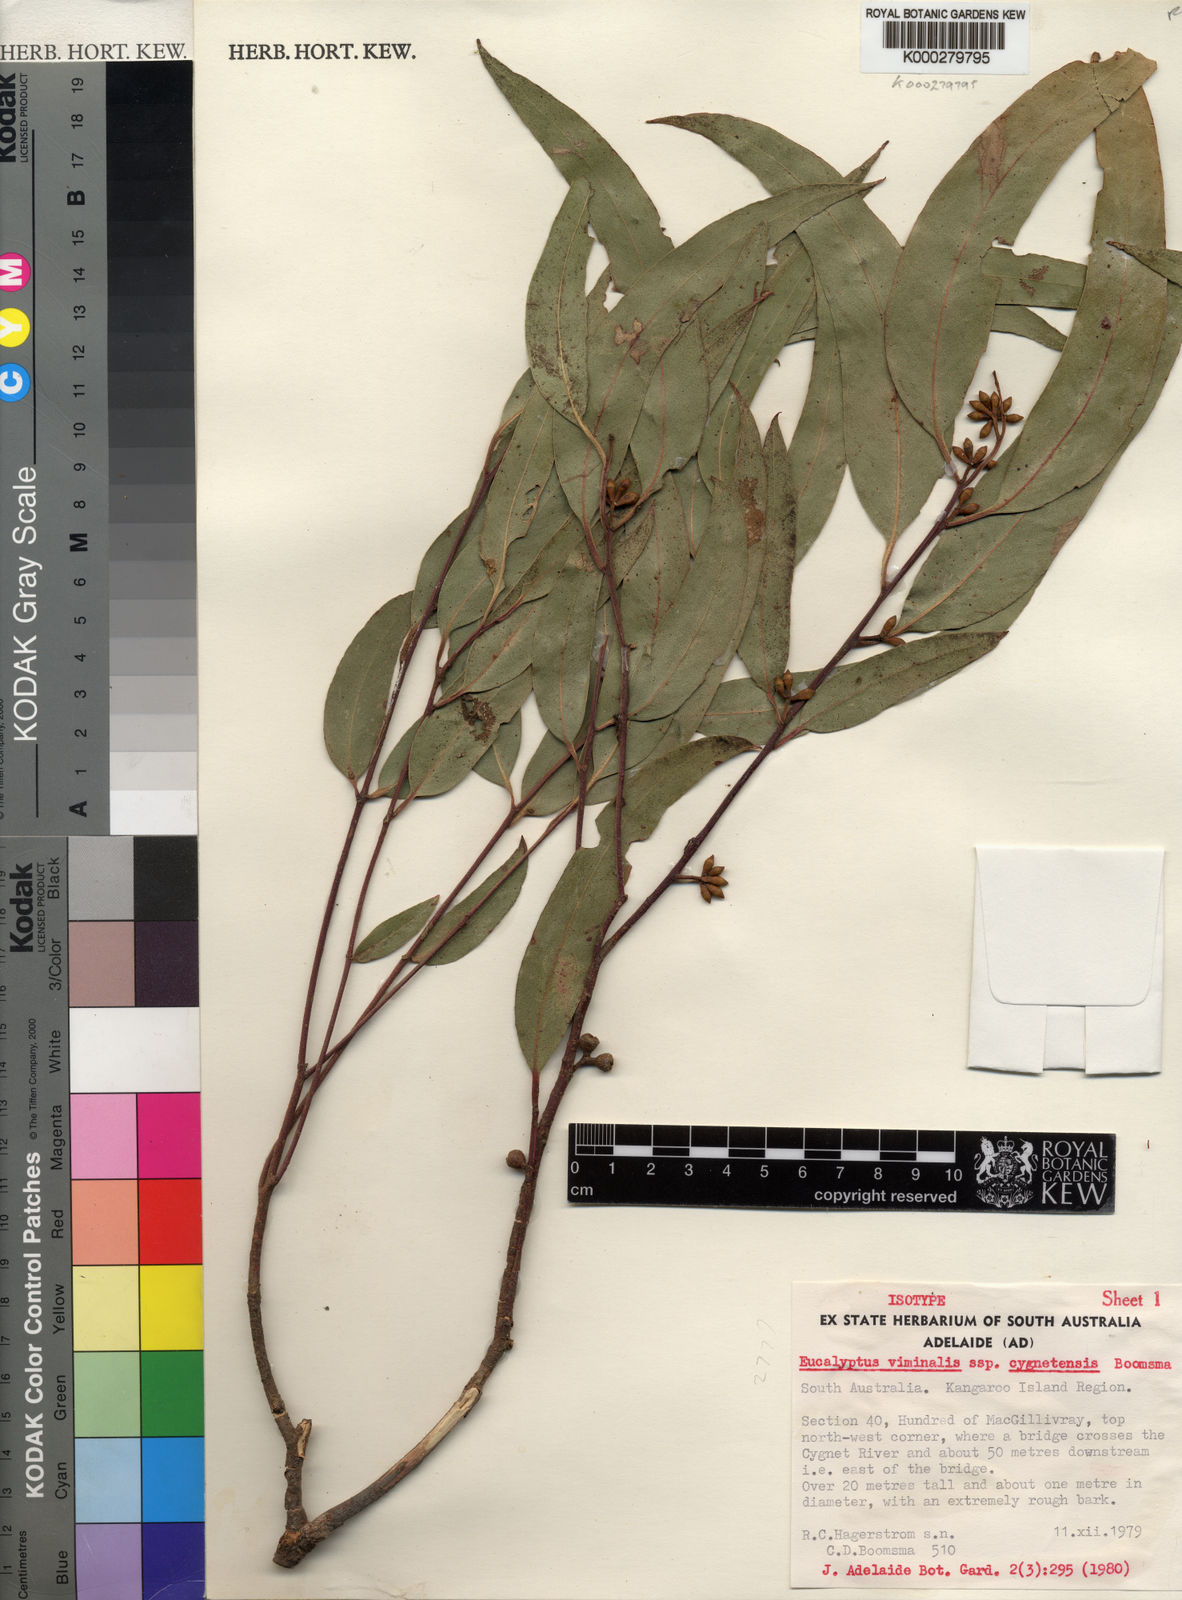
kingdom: Plantae
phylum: Tracheophyta
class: Magnoliopsida
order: Myrtales
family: Myrtaceae
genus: Eucalyptus
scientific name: Eucalyptus viminalis
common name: Manna gum
